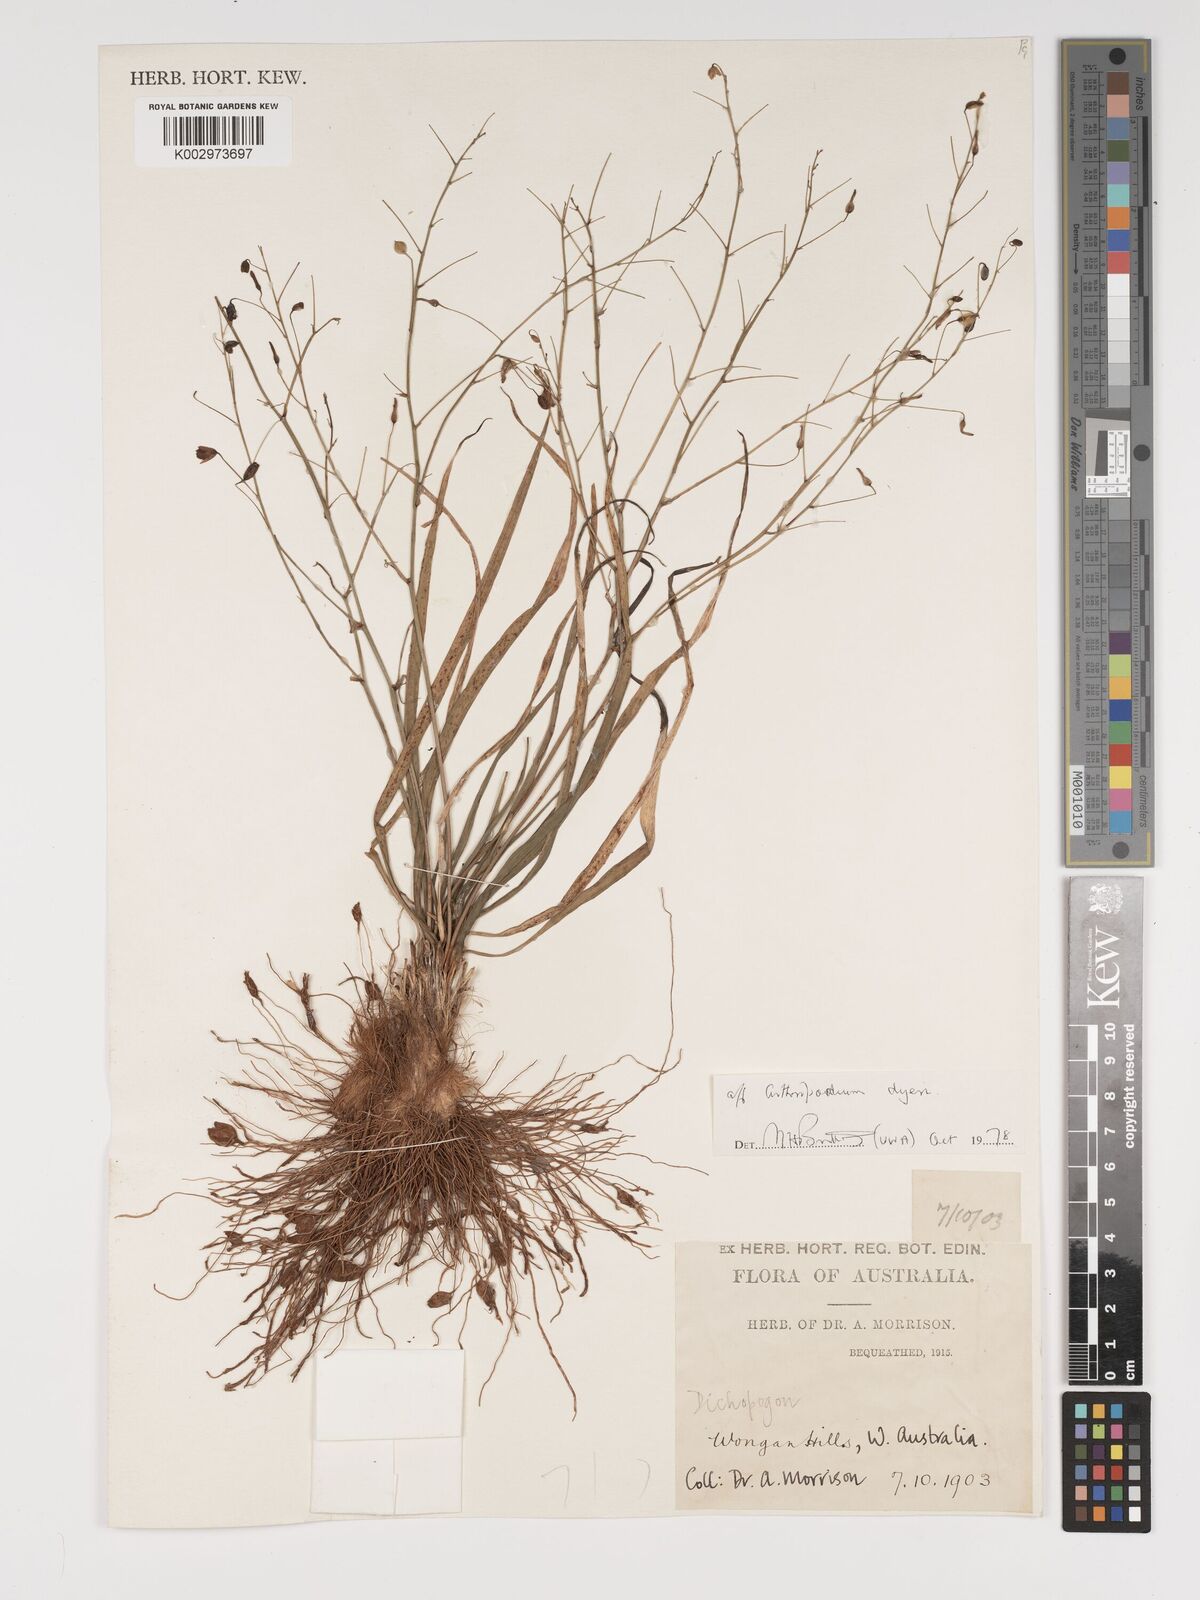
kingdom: Plantae
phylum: Tracheophyta
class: Liliopsida
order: Asparagales
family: Asparagaceae
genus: Arthropodium
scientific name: Arthropodium dyeri
